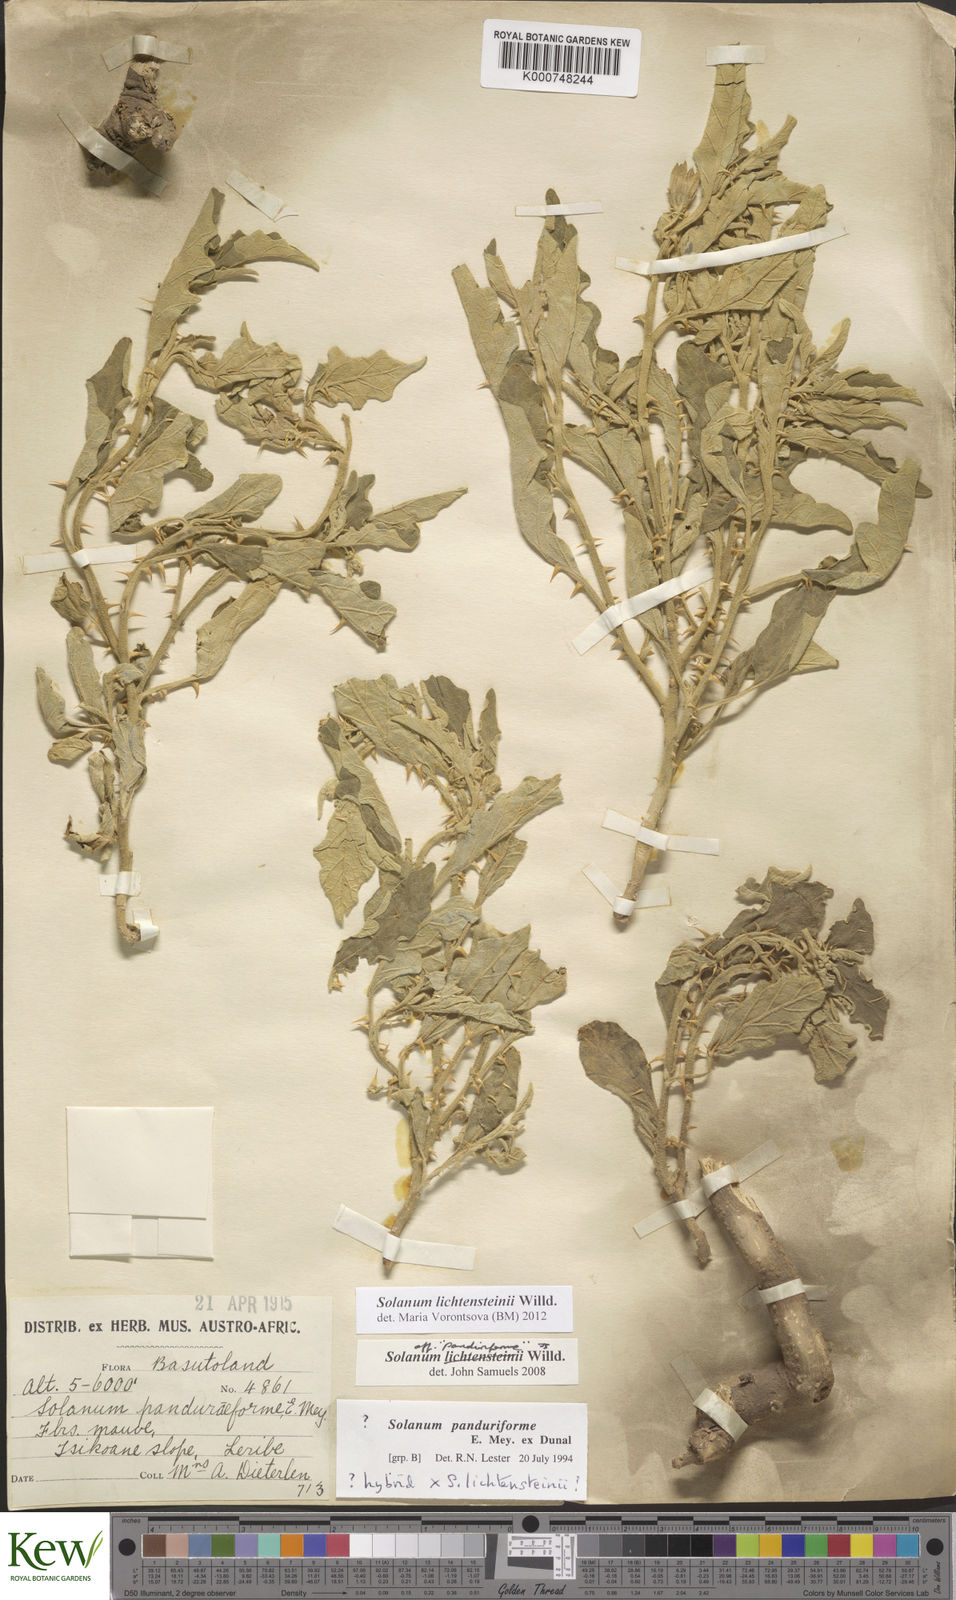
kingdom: Plantae
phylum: Tracheophyta
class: Magnoliopsida
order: Solanales
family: Solanaceae
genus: Solanum
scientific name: Solanum lichtensteinii
